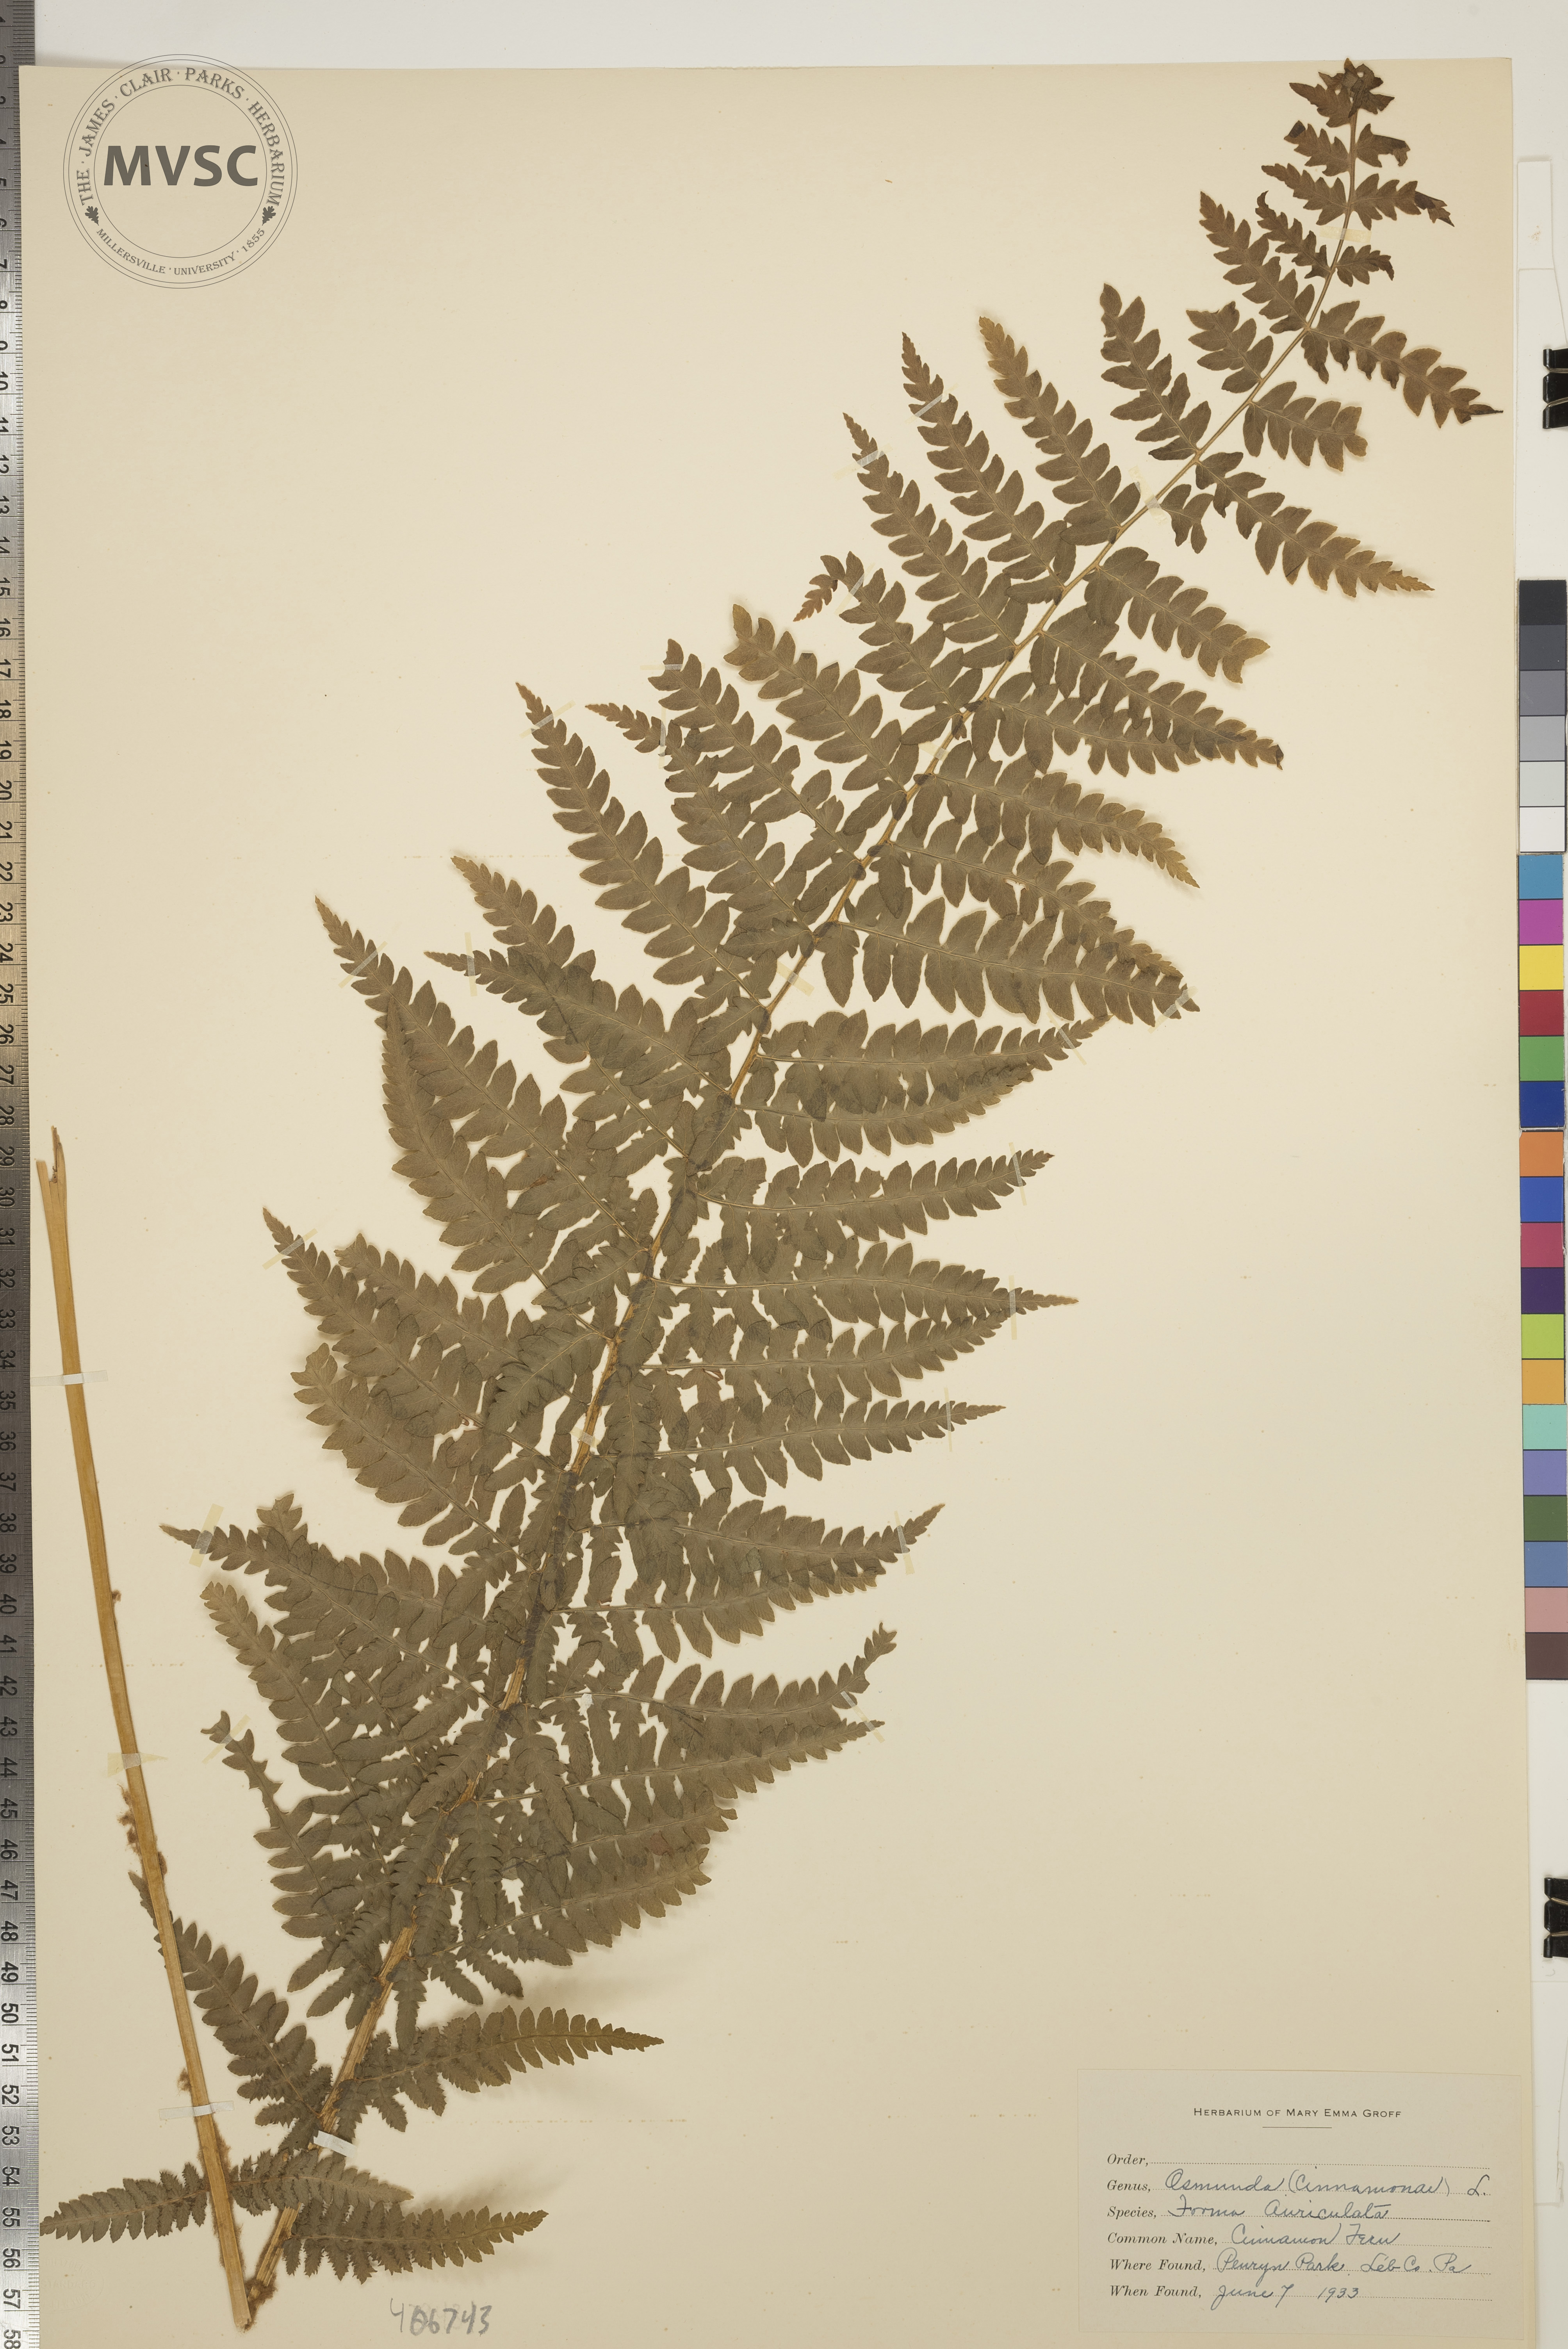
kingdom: Plantae
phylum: Tracheophyta
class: Polypodiopsida
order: Osmundales
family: Osmundaceae
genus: Osmundastrum
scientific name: Osmundastrum cinnamomeum
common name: Cinnamon fern
